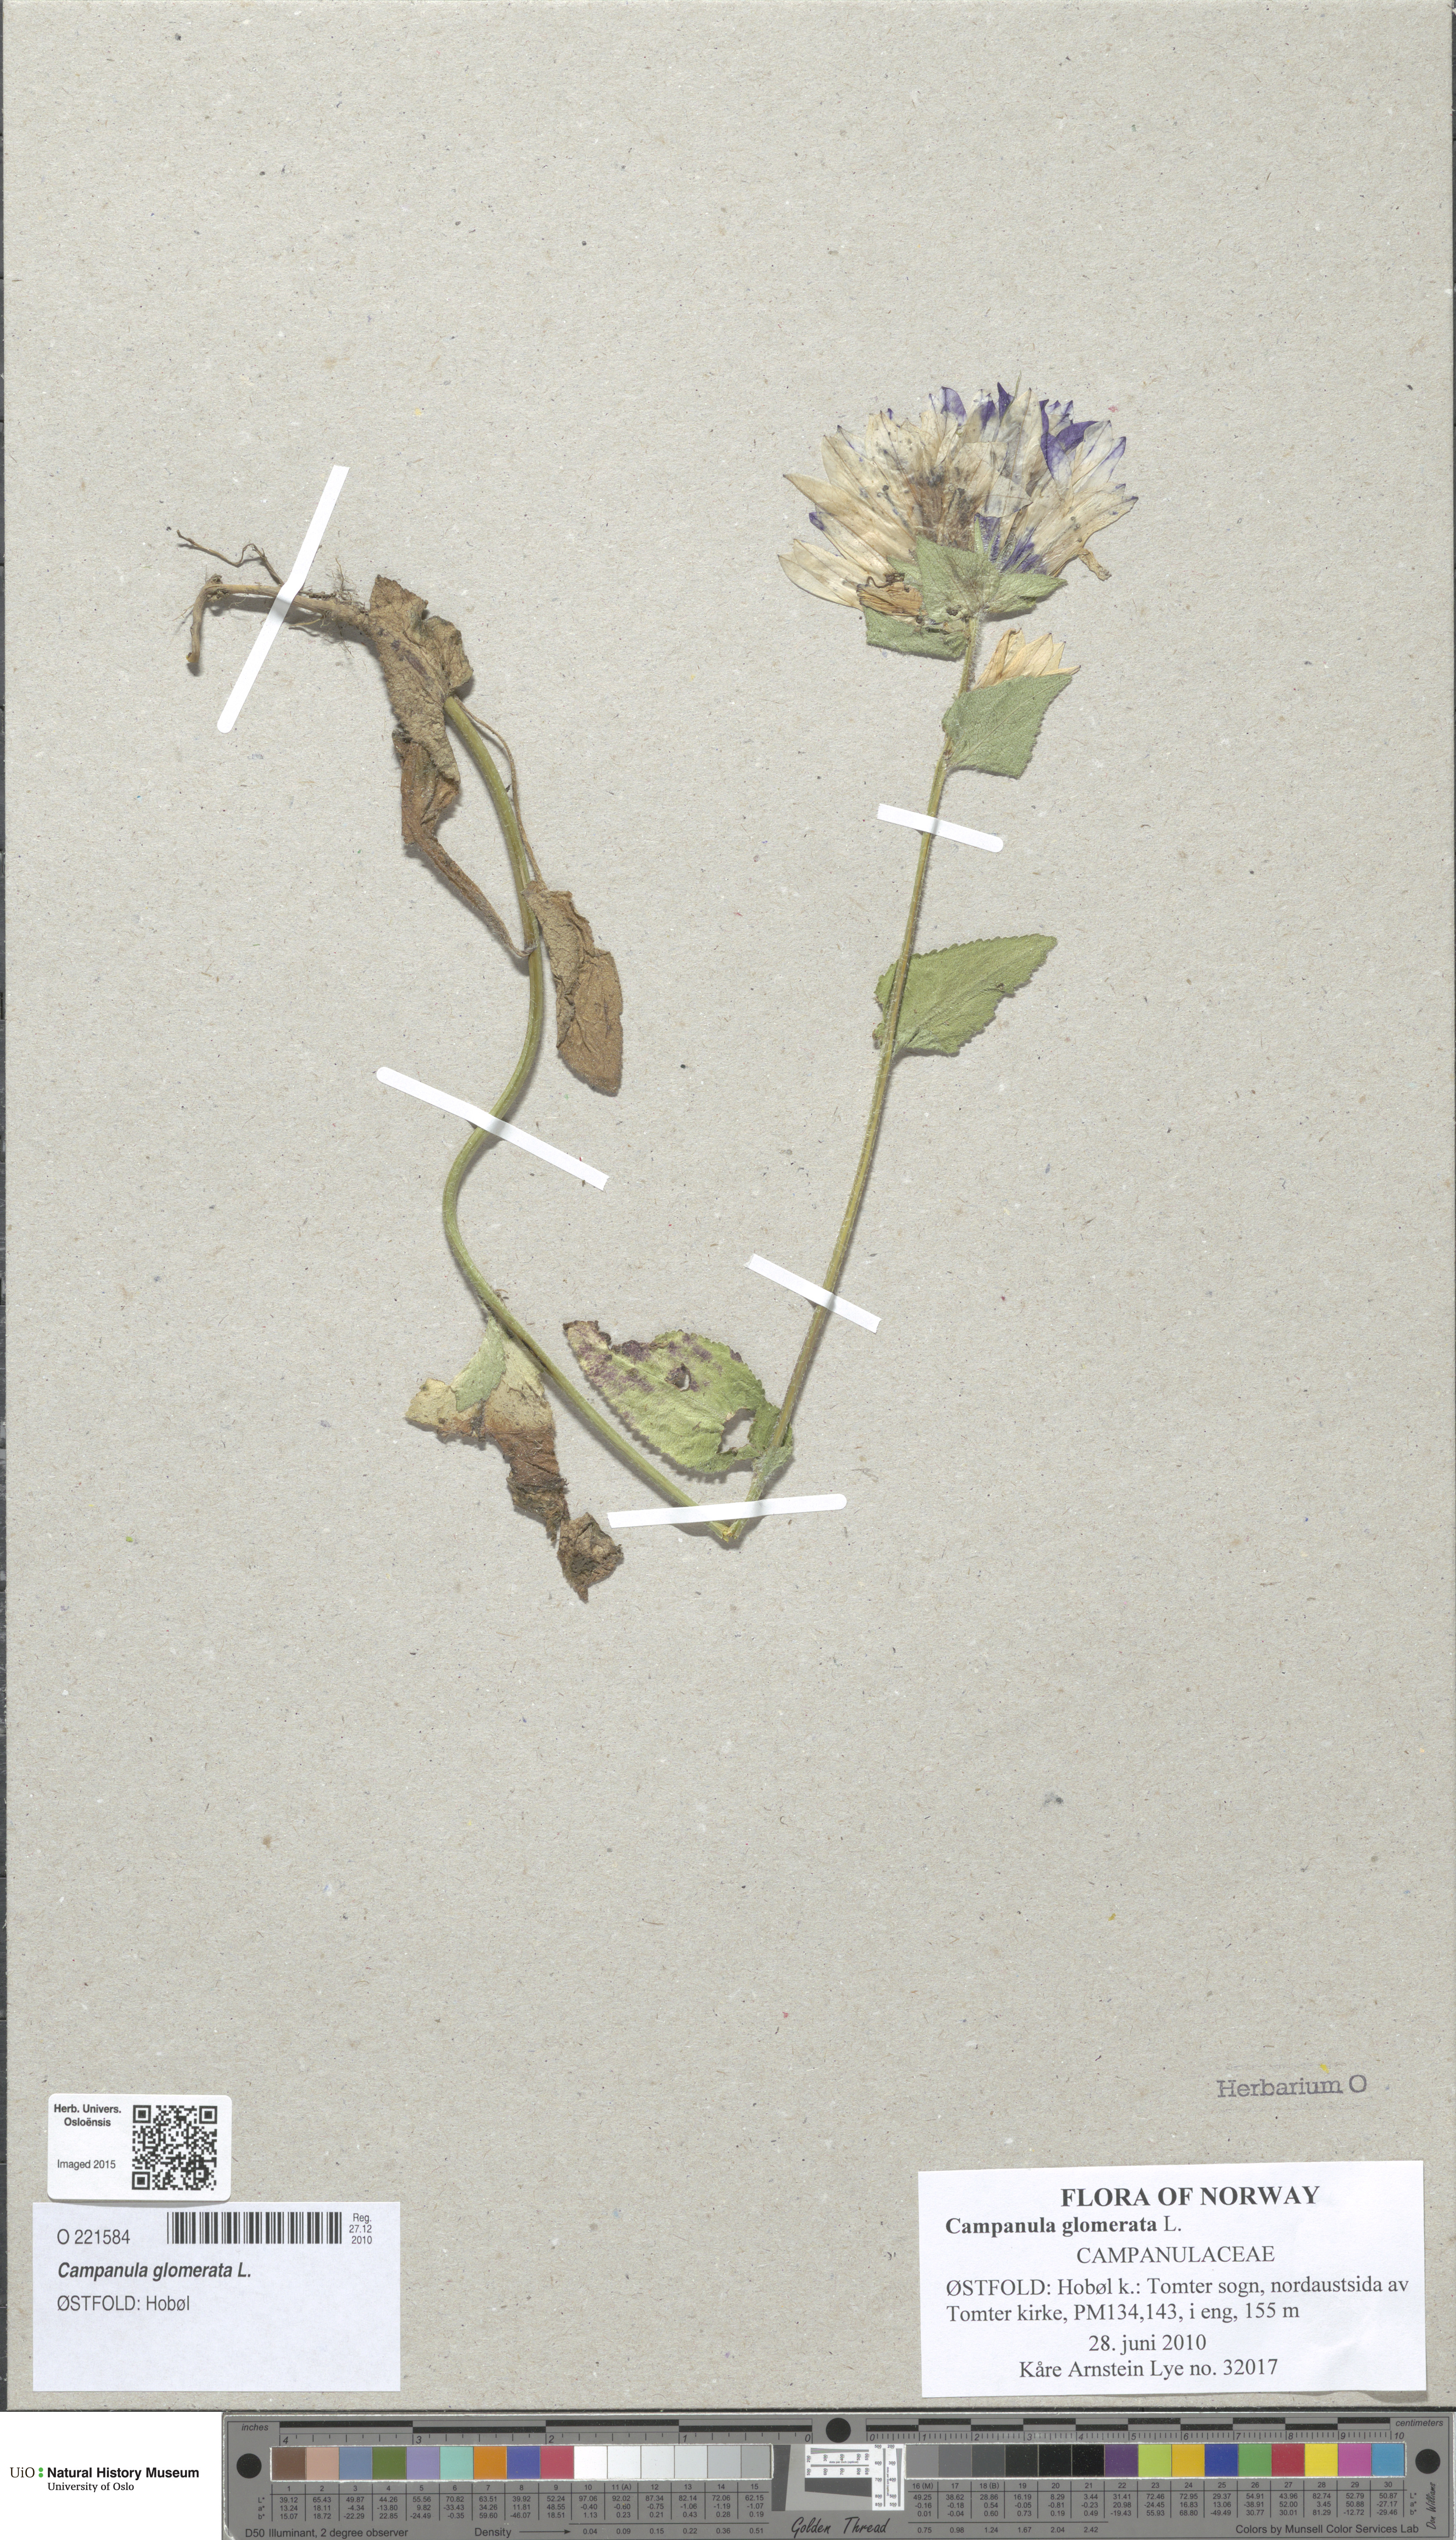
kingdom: Plantae
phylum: Tracheophyta
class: Magnoliopsida
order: Asterales
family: Campanulaceae
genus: Campanula
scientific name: Campanula glomerata
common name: Clustered bellflower
